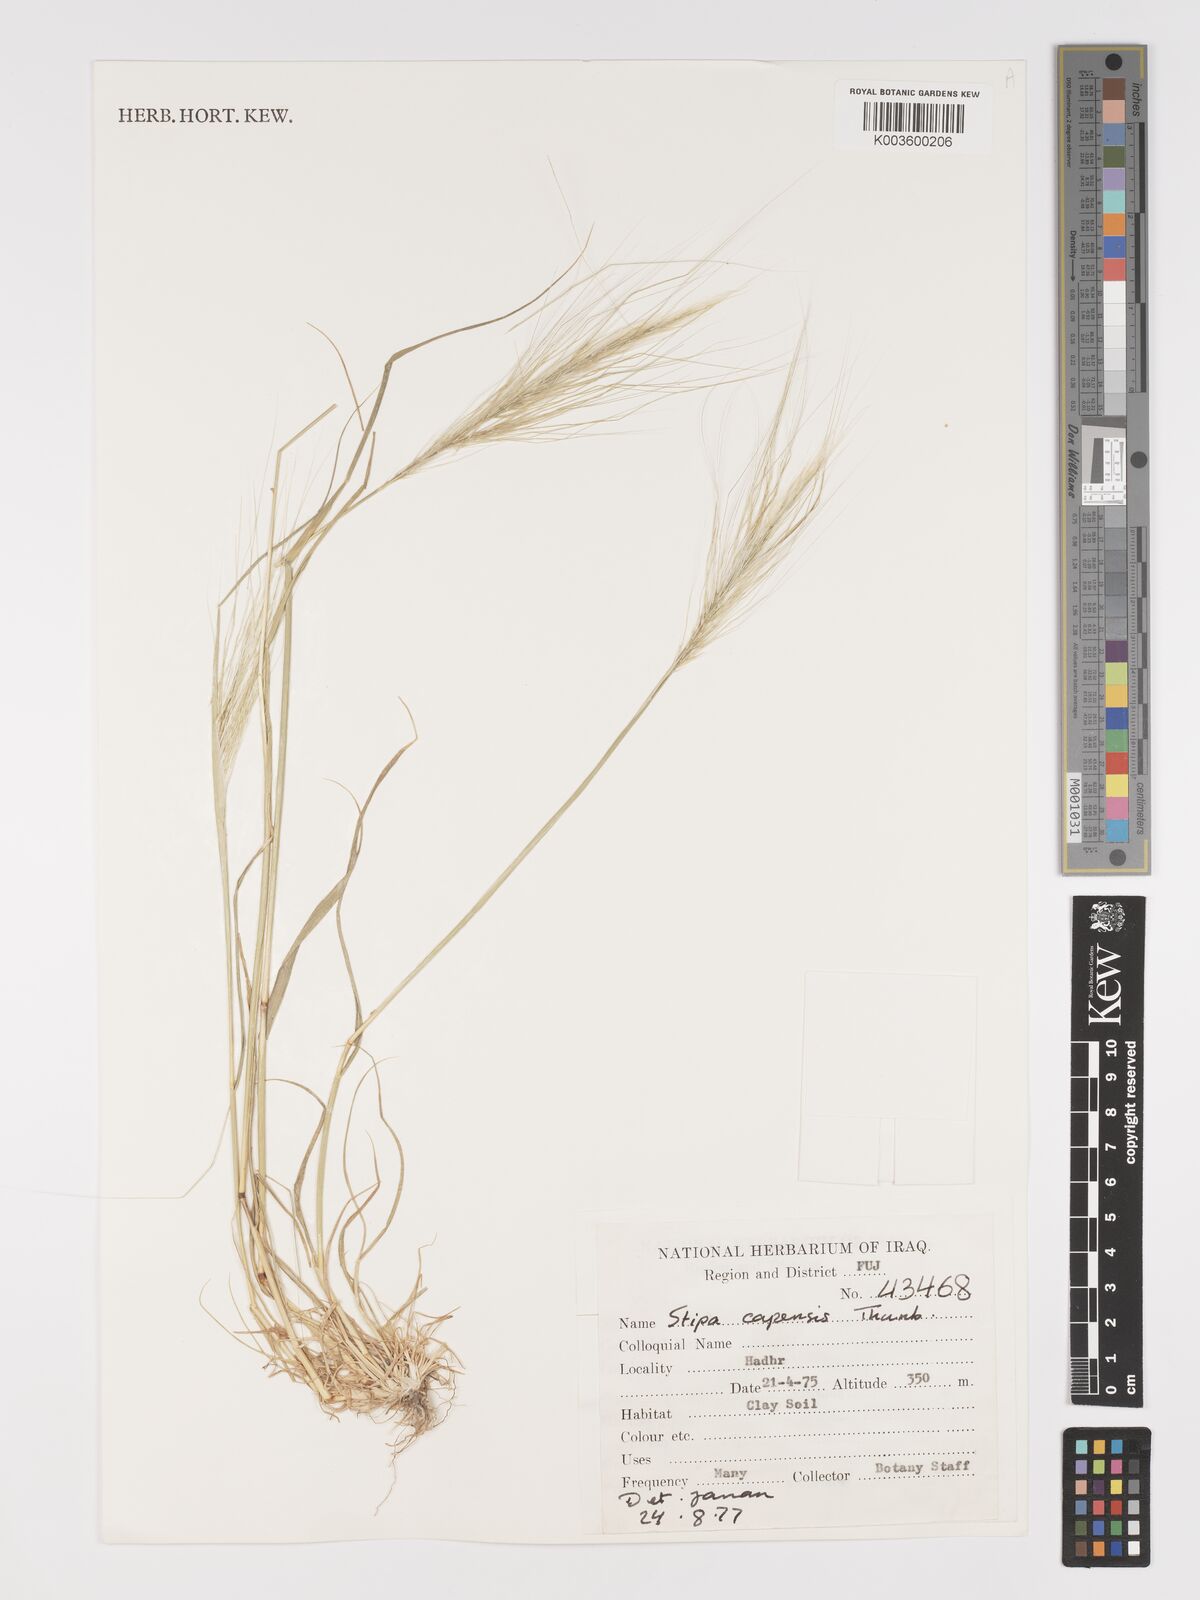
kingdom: Plantae
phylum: Tracheophyta
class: Liliopsida
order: Poales
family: Poaceae
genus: Stipellula
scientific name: Stipellula capensis
